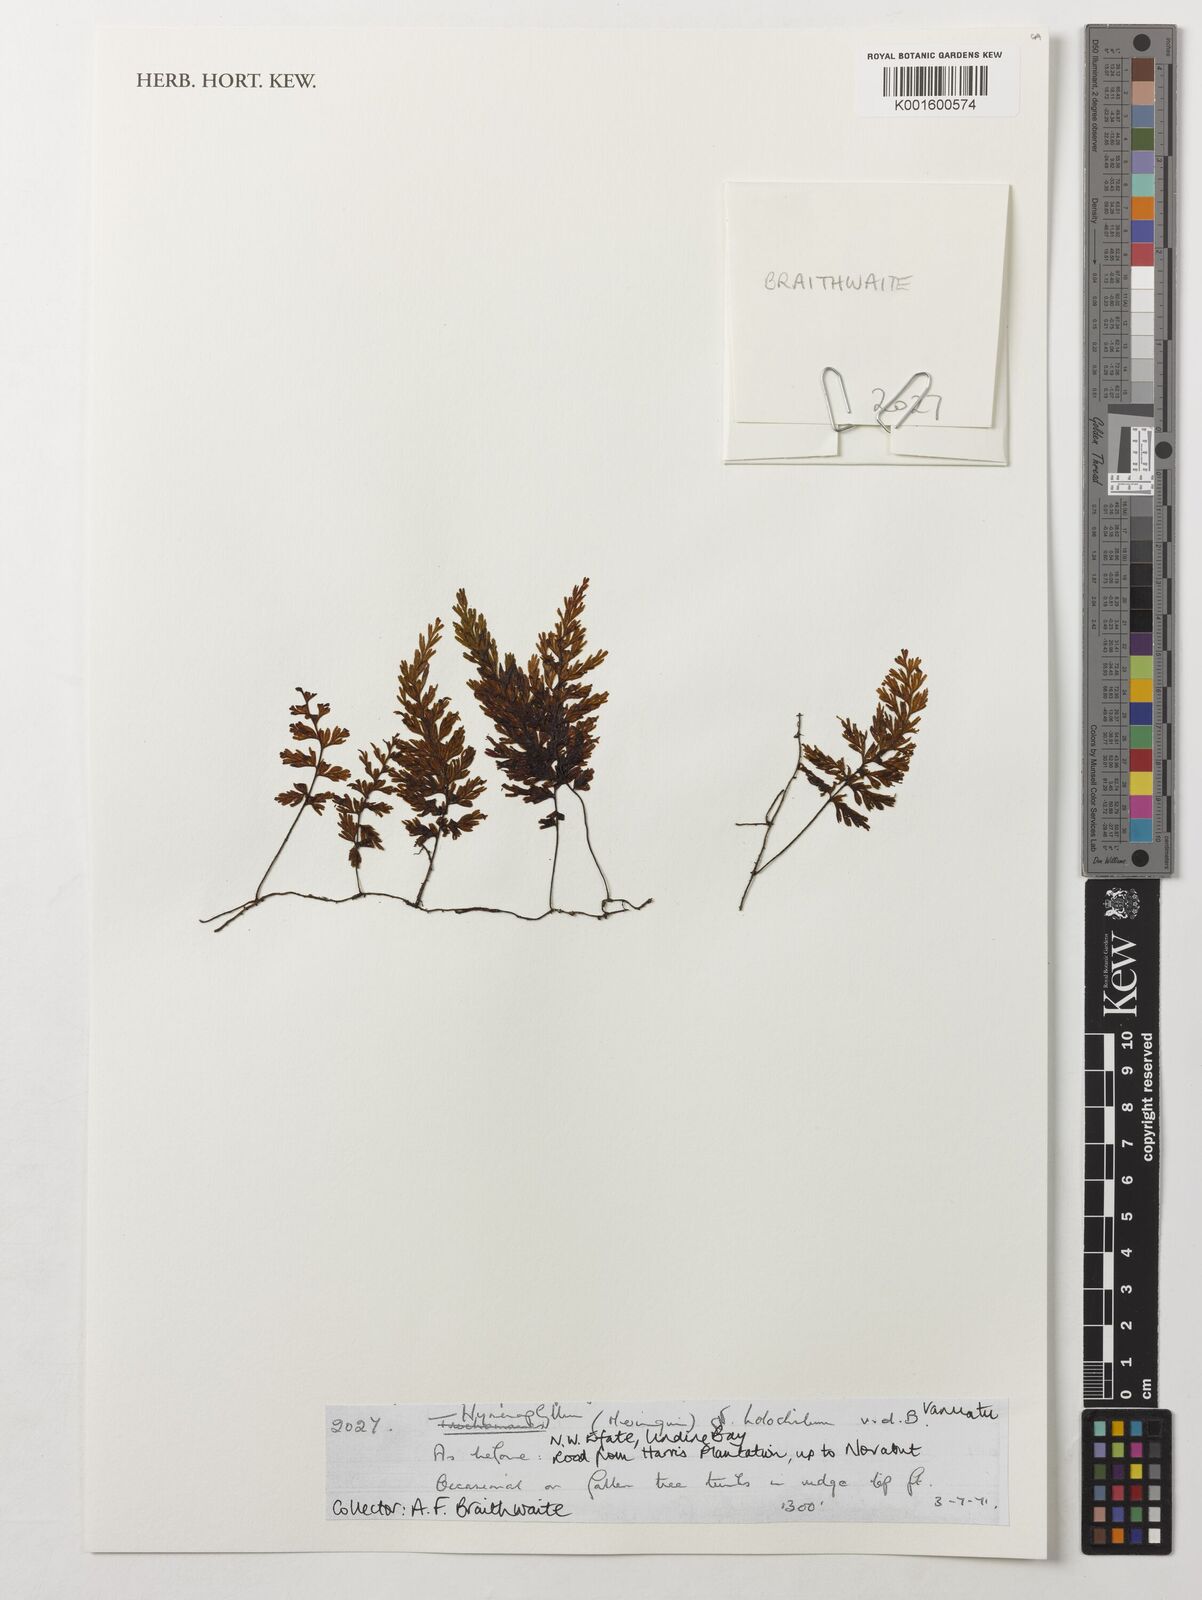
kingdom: Plantae
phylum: Tracheophyta
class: Polypodiopsida
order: Hymenophyllales
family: Hymenophyllaceae
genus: Hymenophyllum
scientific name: Hymenophyllum holochilum
